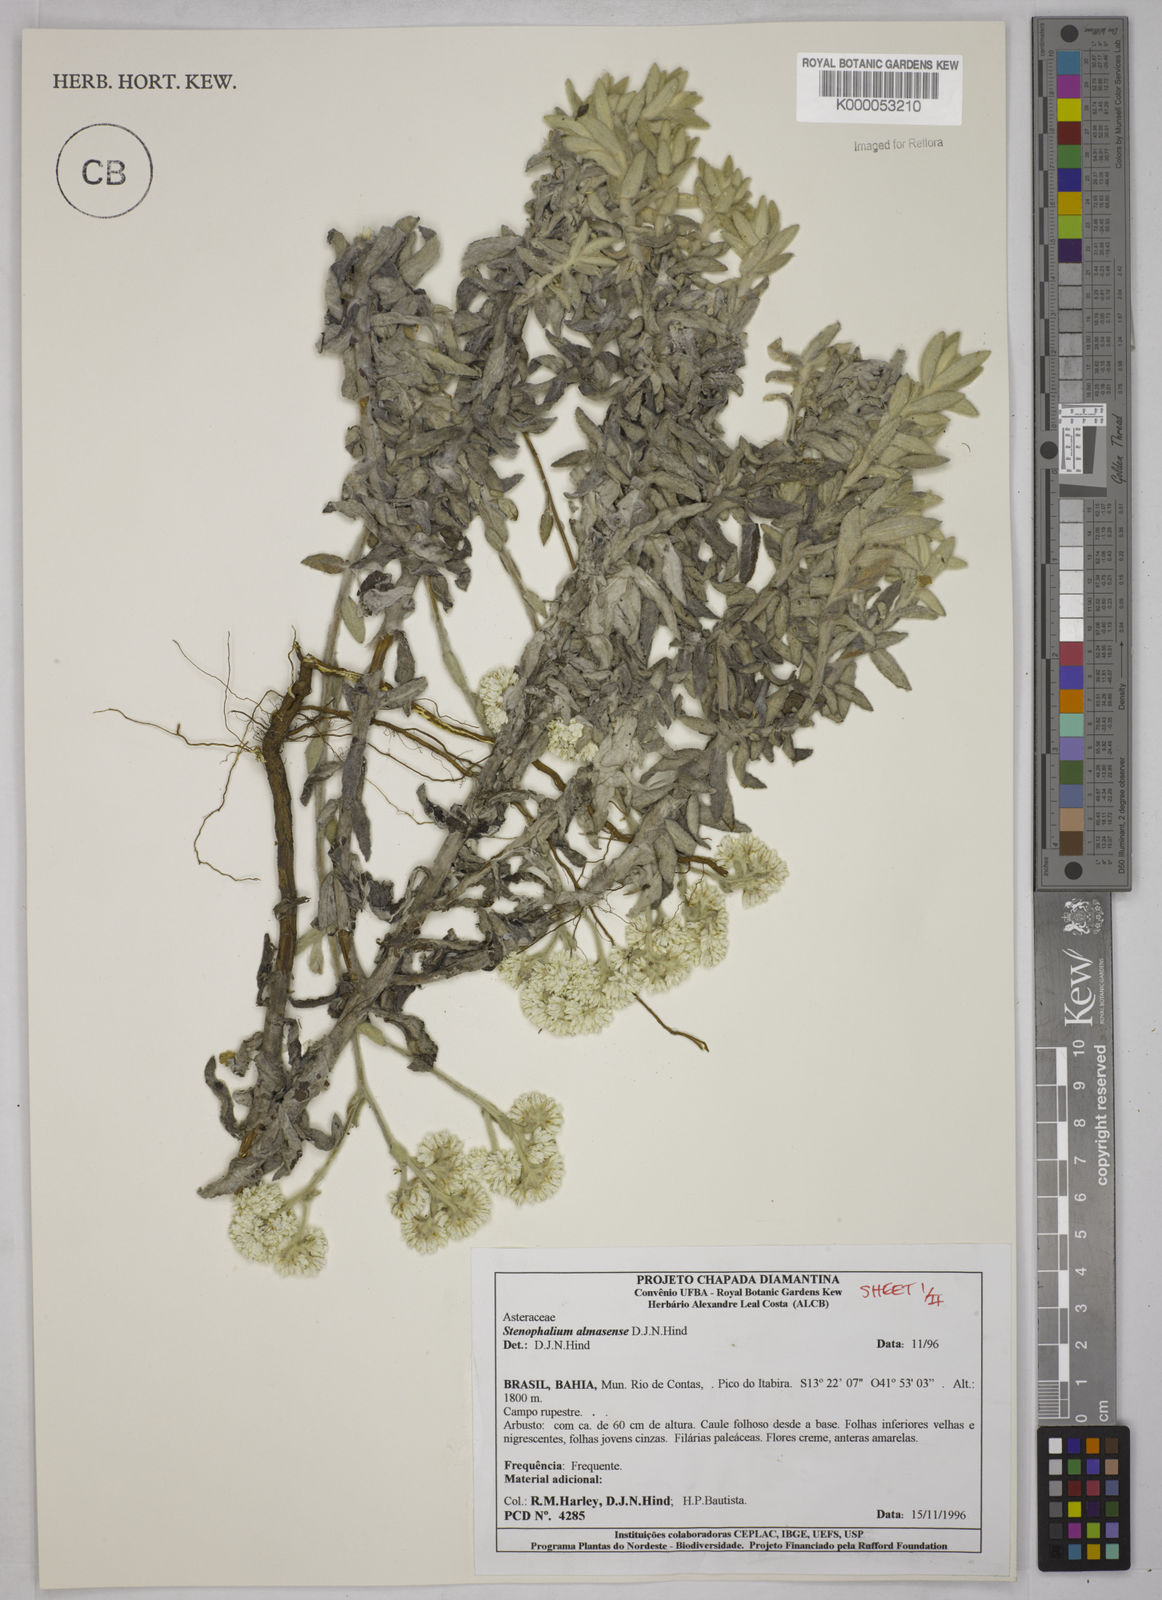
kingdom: Plantae
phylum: Tracheophyta
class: Magnoliopsida
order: Asterales
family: Asteraceae
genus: Achyrocline
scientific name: Achyrocline eriodes
